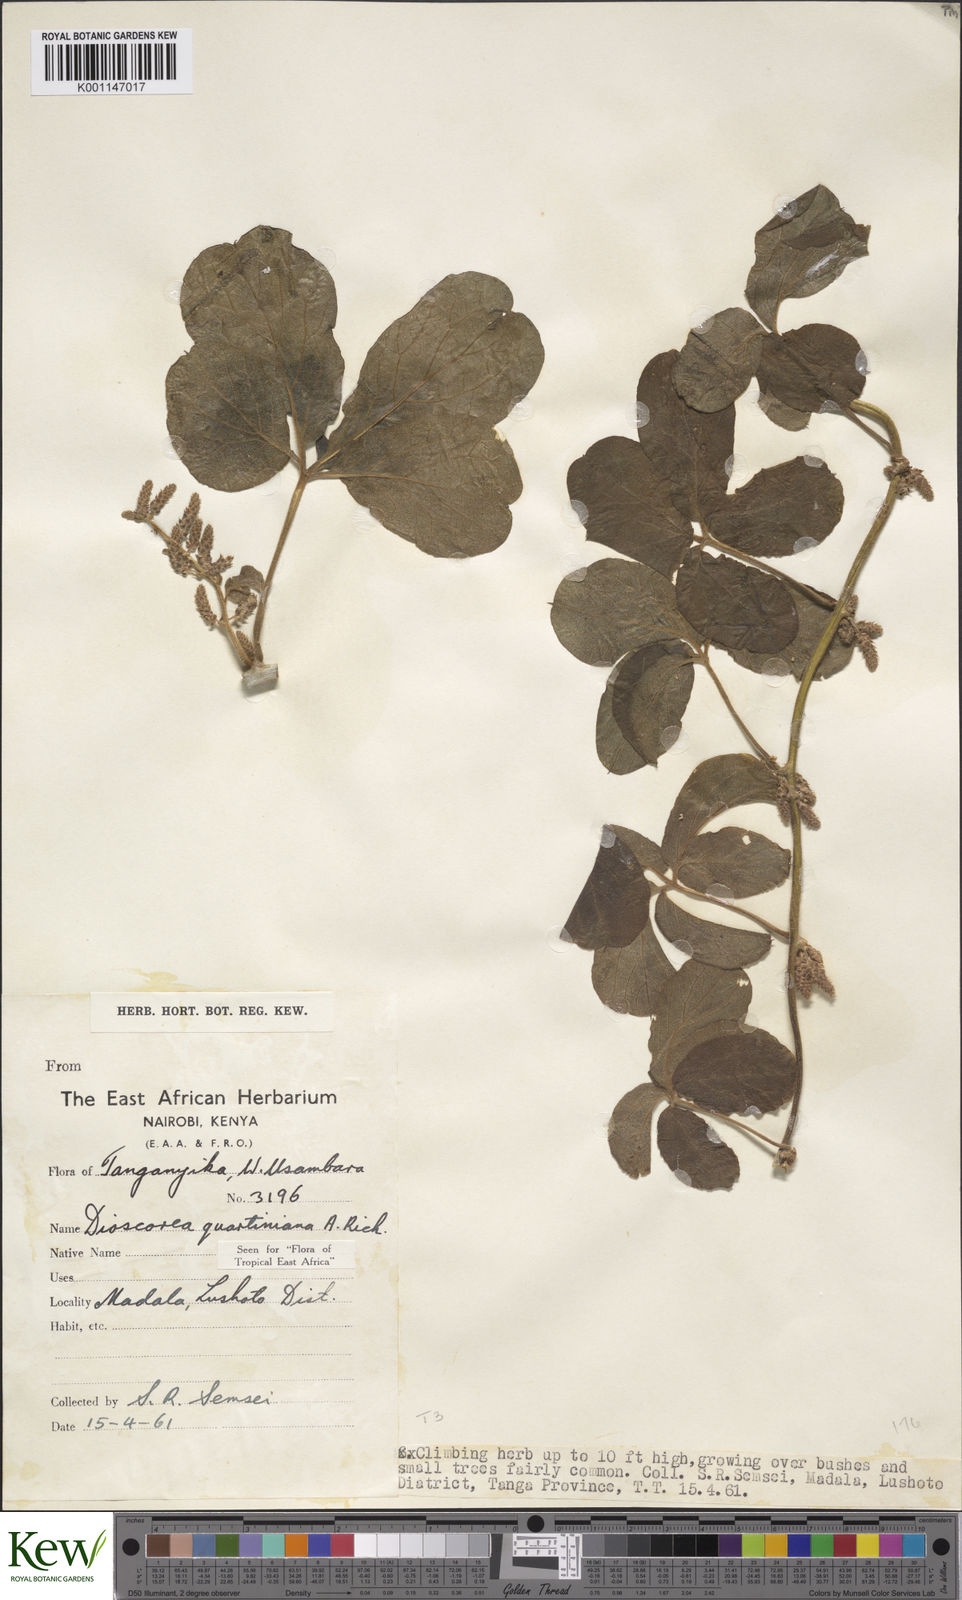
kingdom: Plantae
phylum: Tracheophyta
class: Liliopsida
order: Dioscoreales
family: Dioscoreaceae
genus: Dioscorea
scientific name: Dioscorea quartiniana
